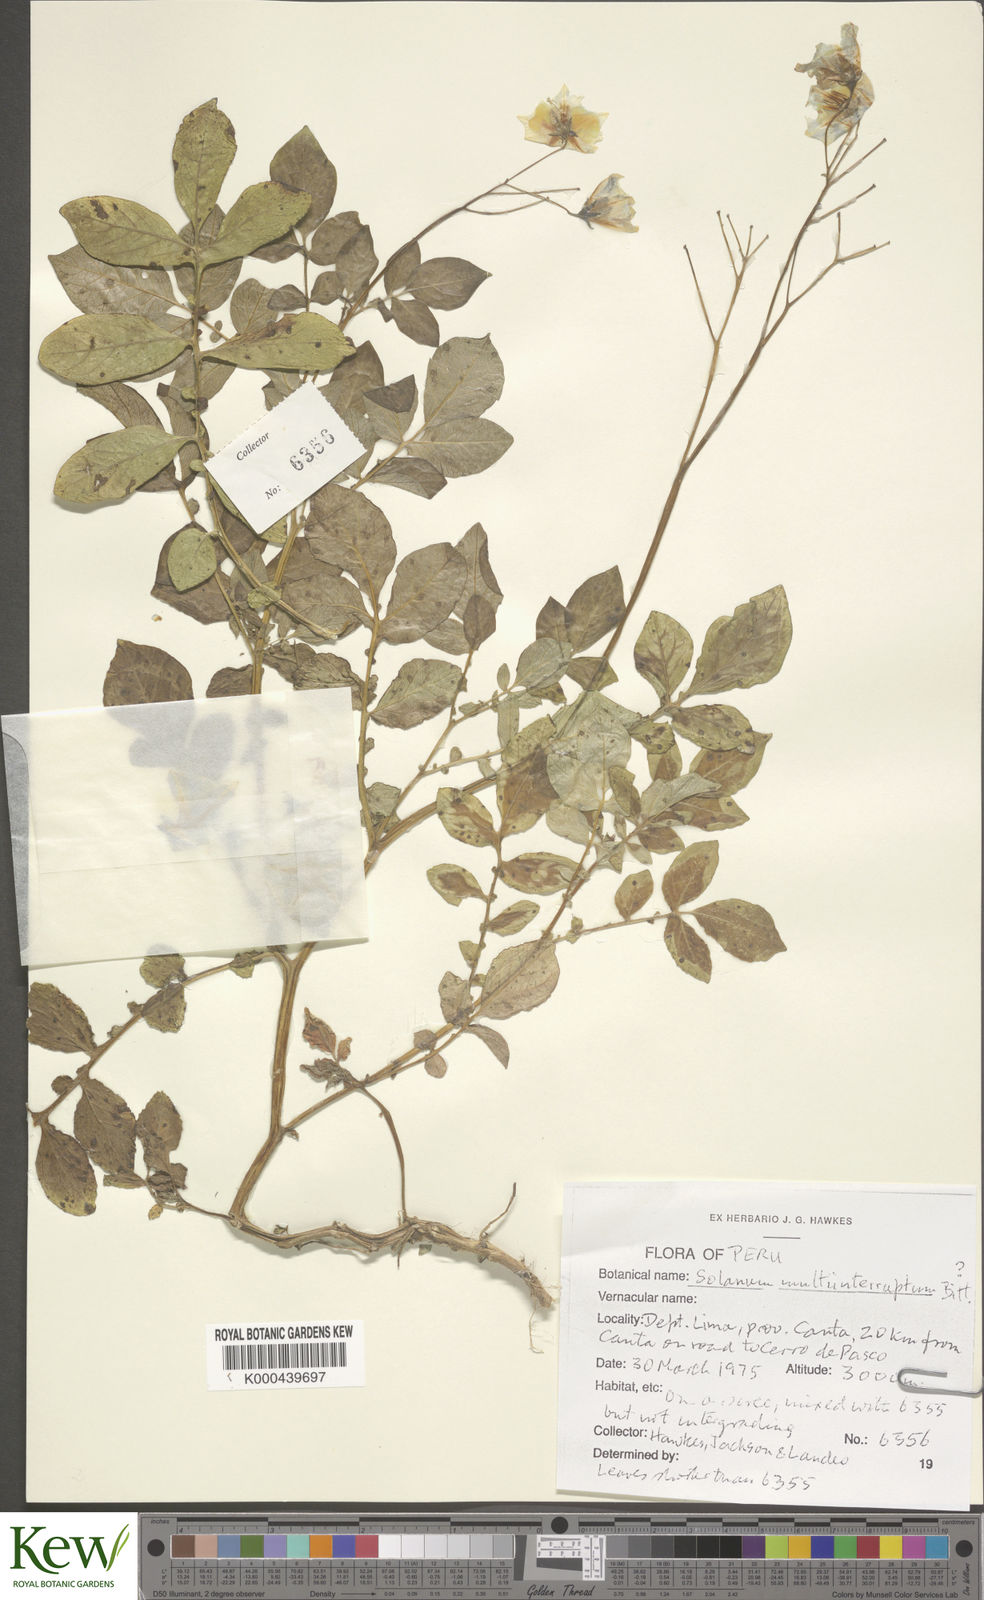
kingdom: Plantae
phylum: Tracheophyta
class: Magnoliopsida
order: Solanales
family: Solanaceae
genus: Solanum
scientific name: Solanum multiinterruptum
